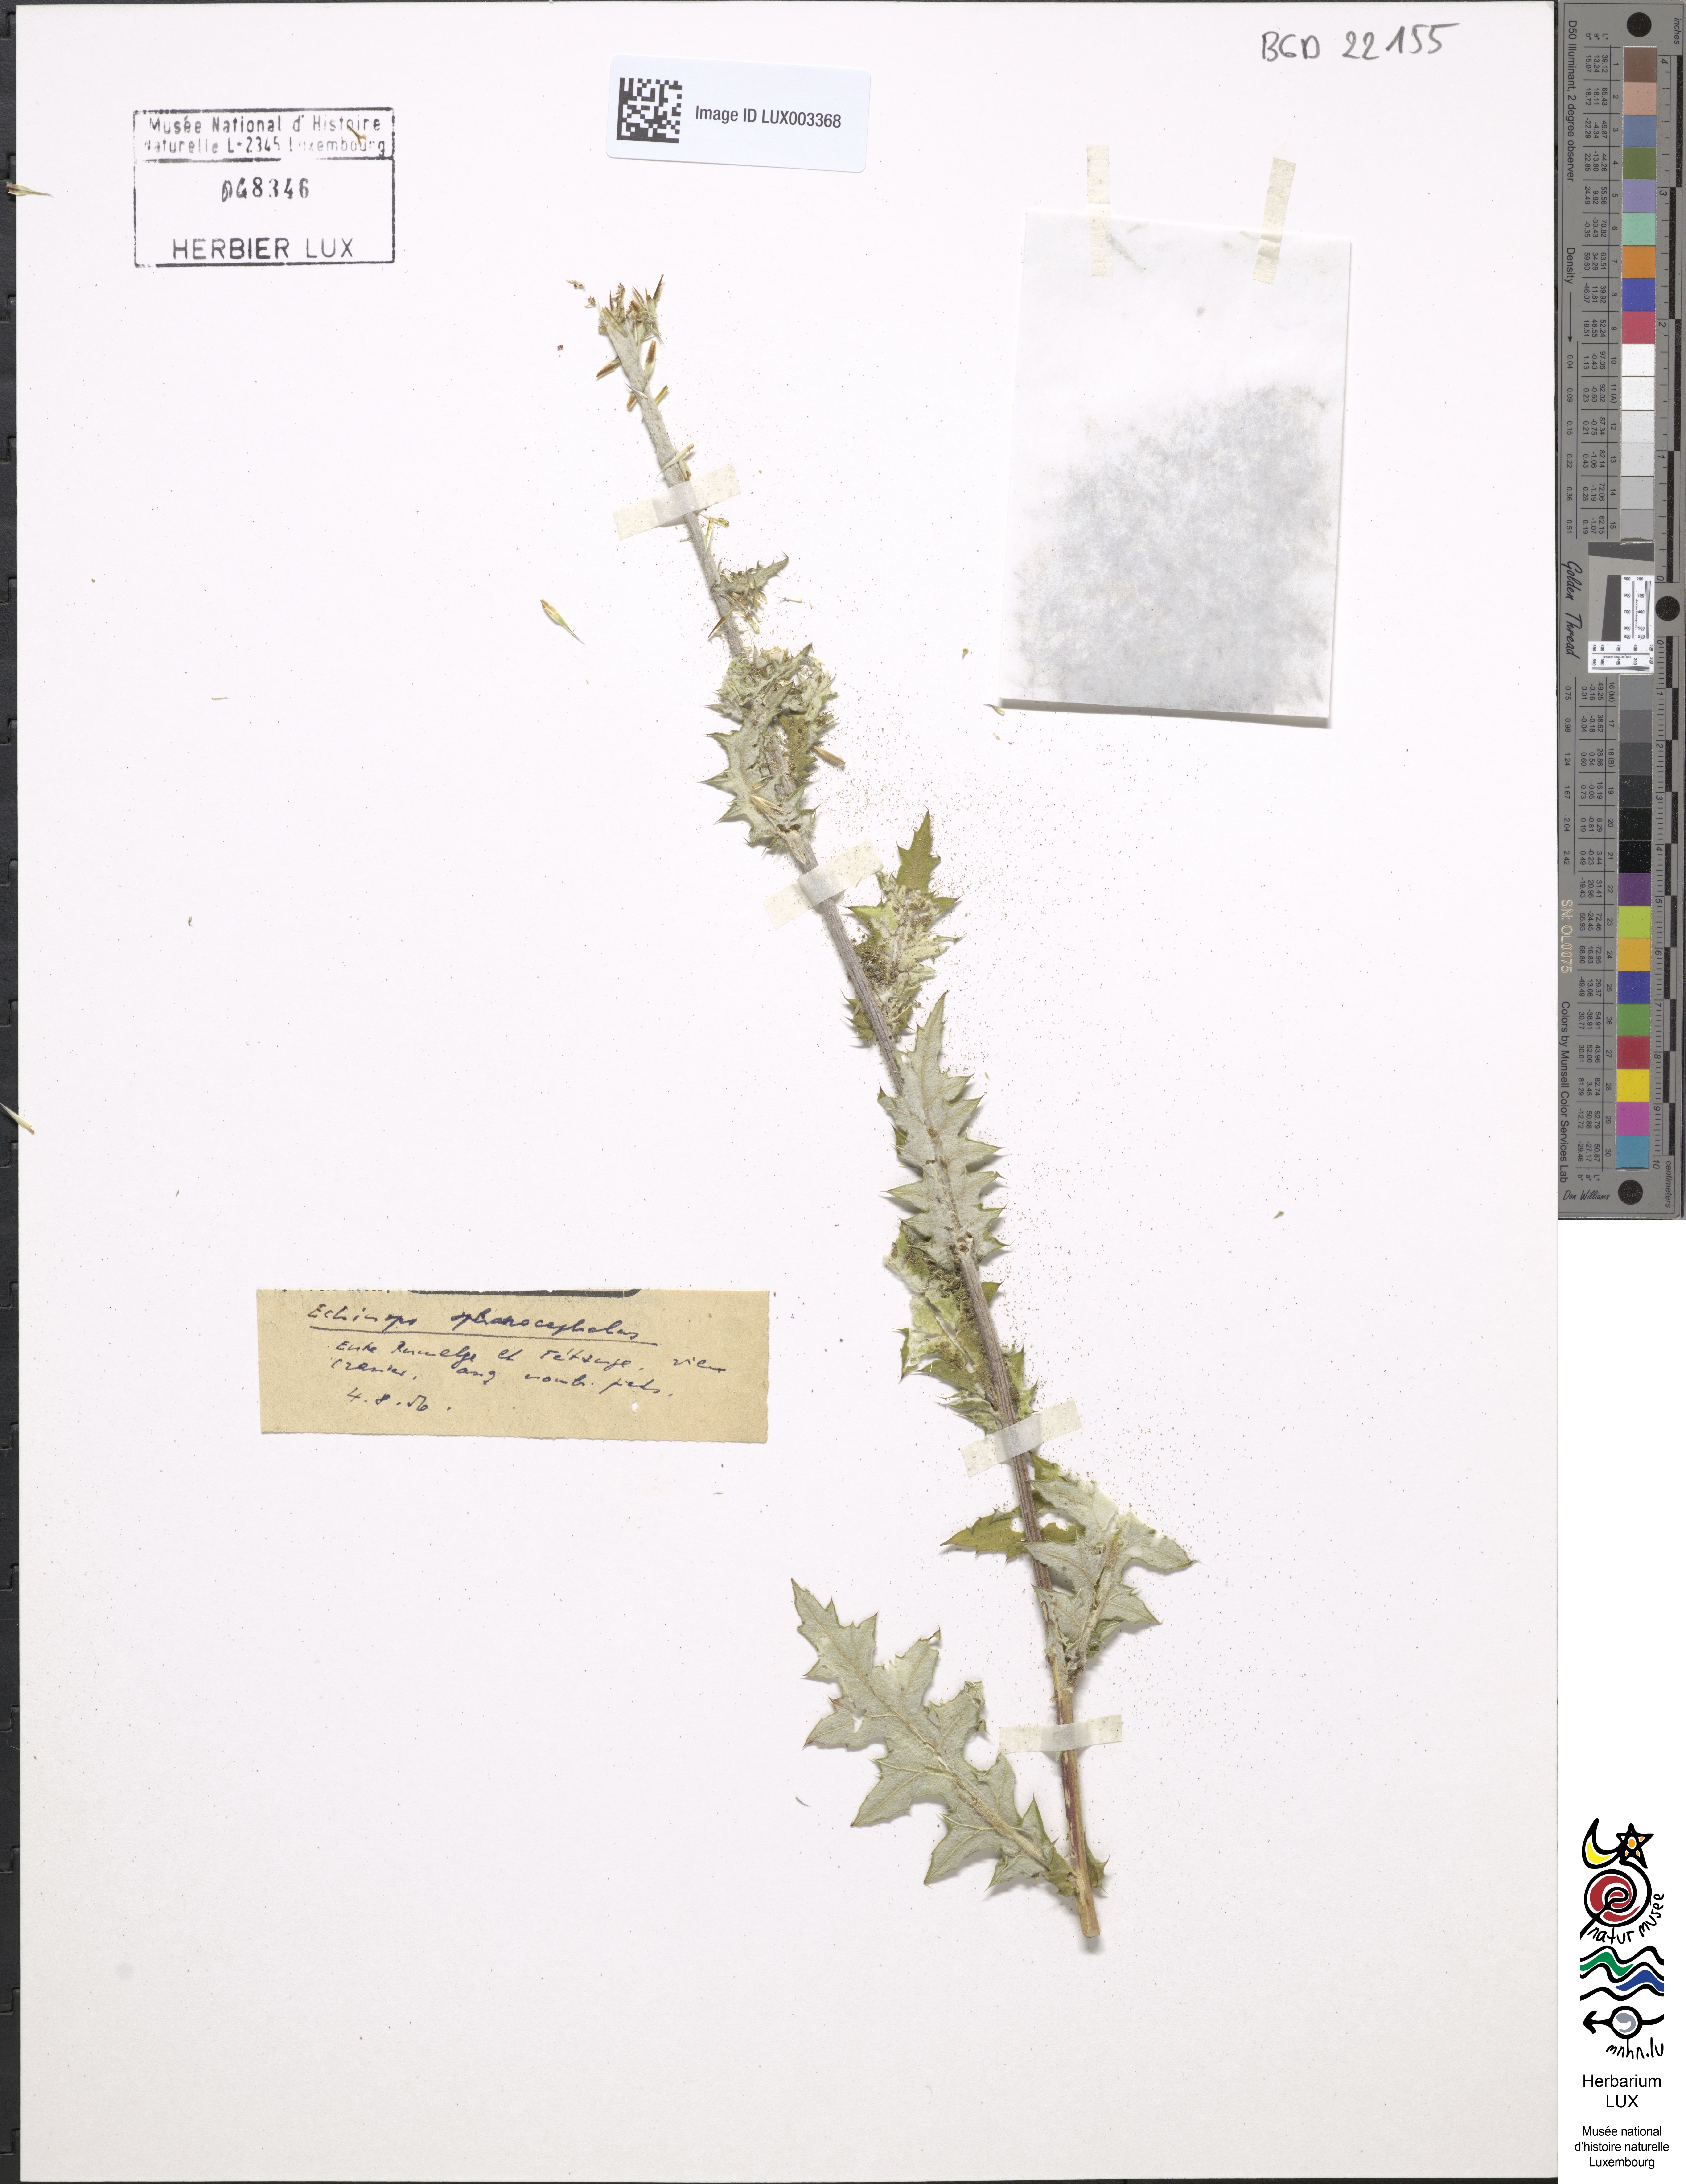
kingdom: Plantae
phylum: Tracheophyta
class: Magnoliopsida
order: Asterales
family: Asteraceae
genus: Echinops
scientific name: Echinops sphaerocephalus
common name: Glandular globe-thistle
